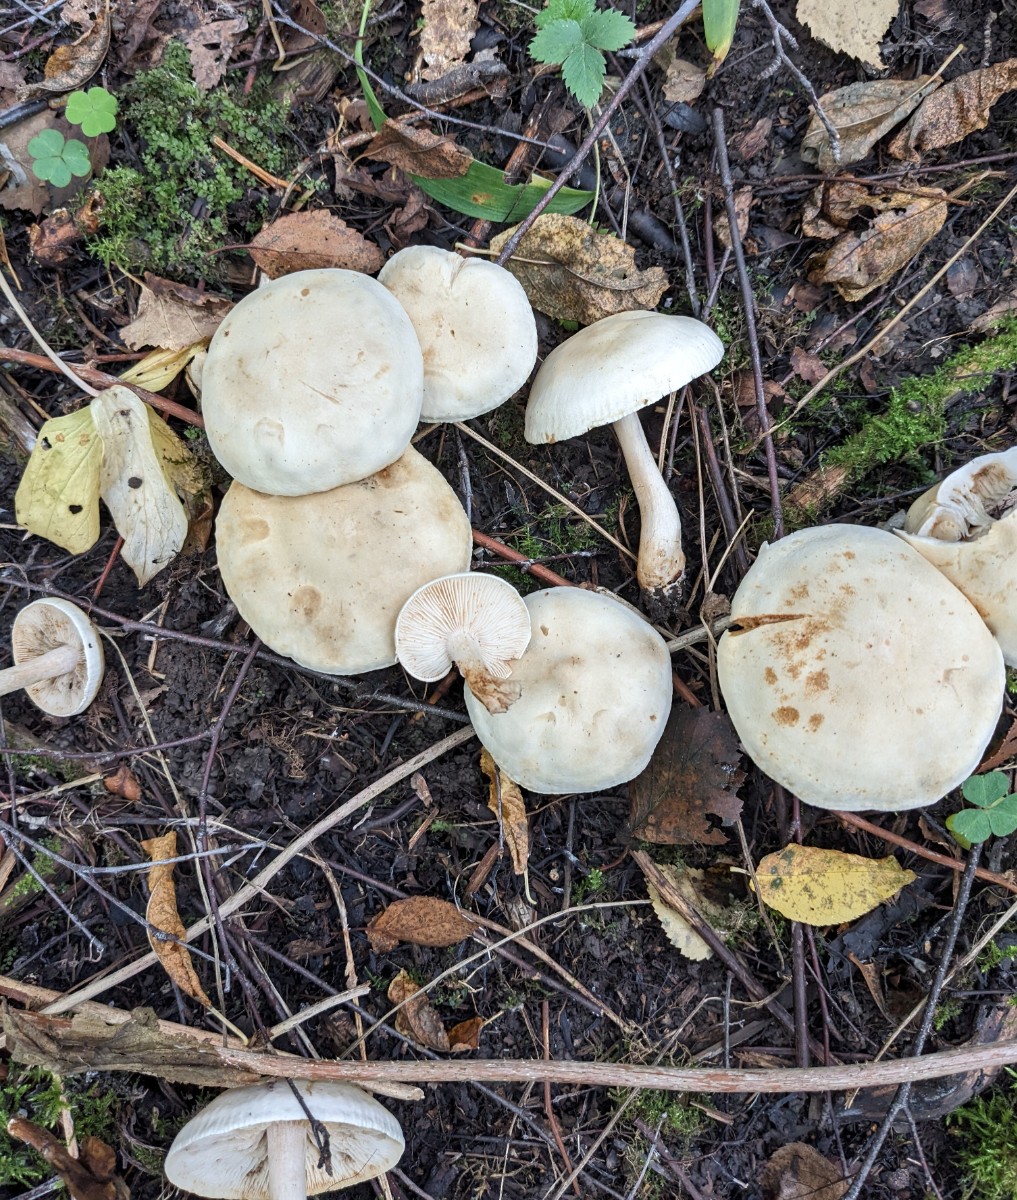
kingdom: Fungi
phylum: Basidiomycota
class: Agaricomycetes
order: Agaricales
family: Tricholomataceae
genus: Tricholoma
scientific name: Tricholoma stiparophyllum
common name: hvid ridderhat
